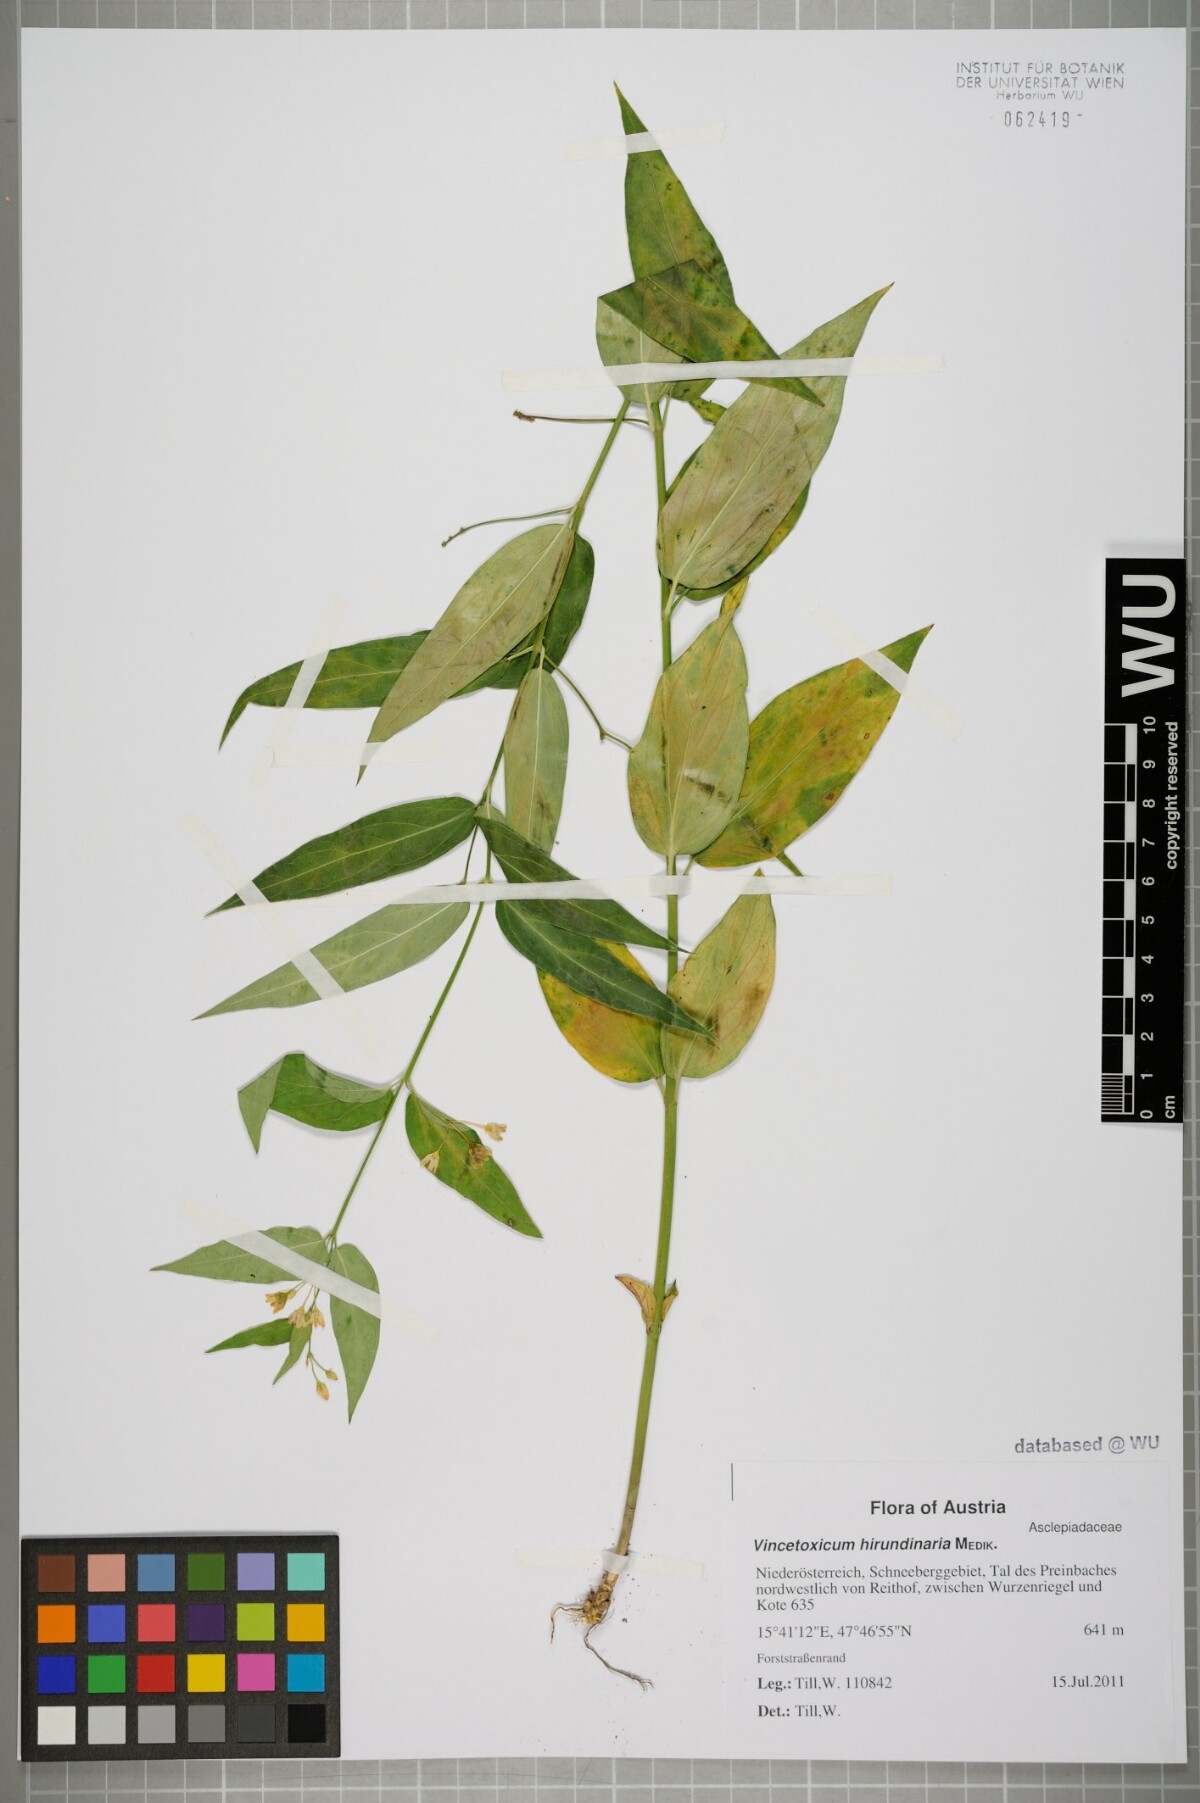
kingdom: Plantae
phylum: Tracheophyta
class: Magnoliopsida
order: Gentianales
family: Apocynaceae
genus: Vincetoxicum
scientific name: Vincetoxicum hirundinaria
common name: White swallowwort
